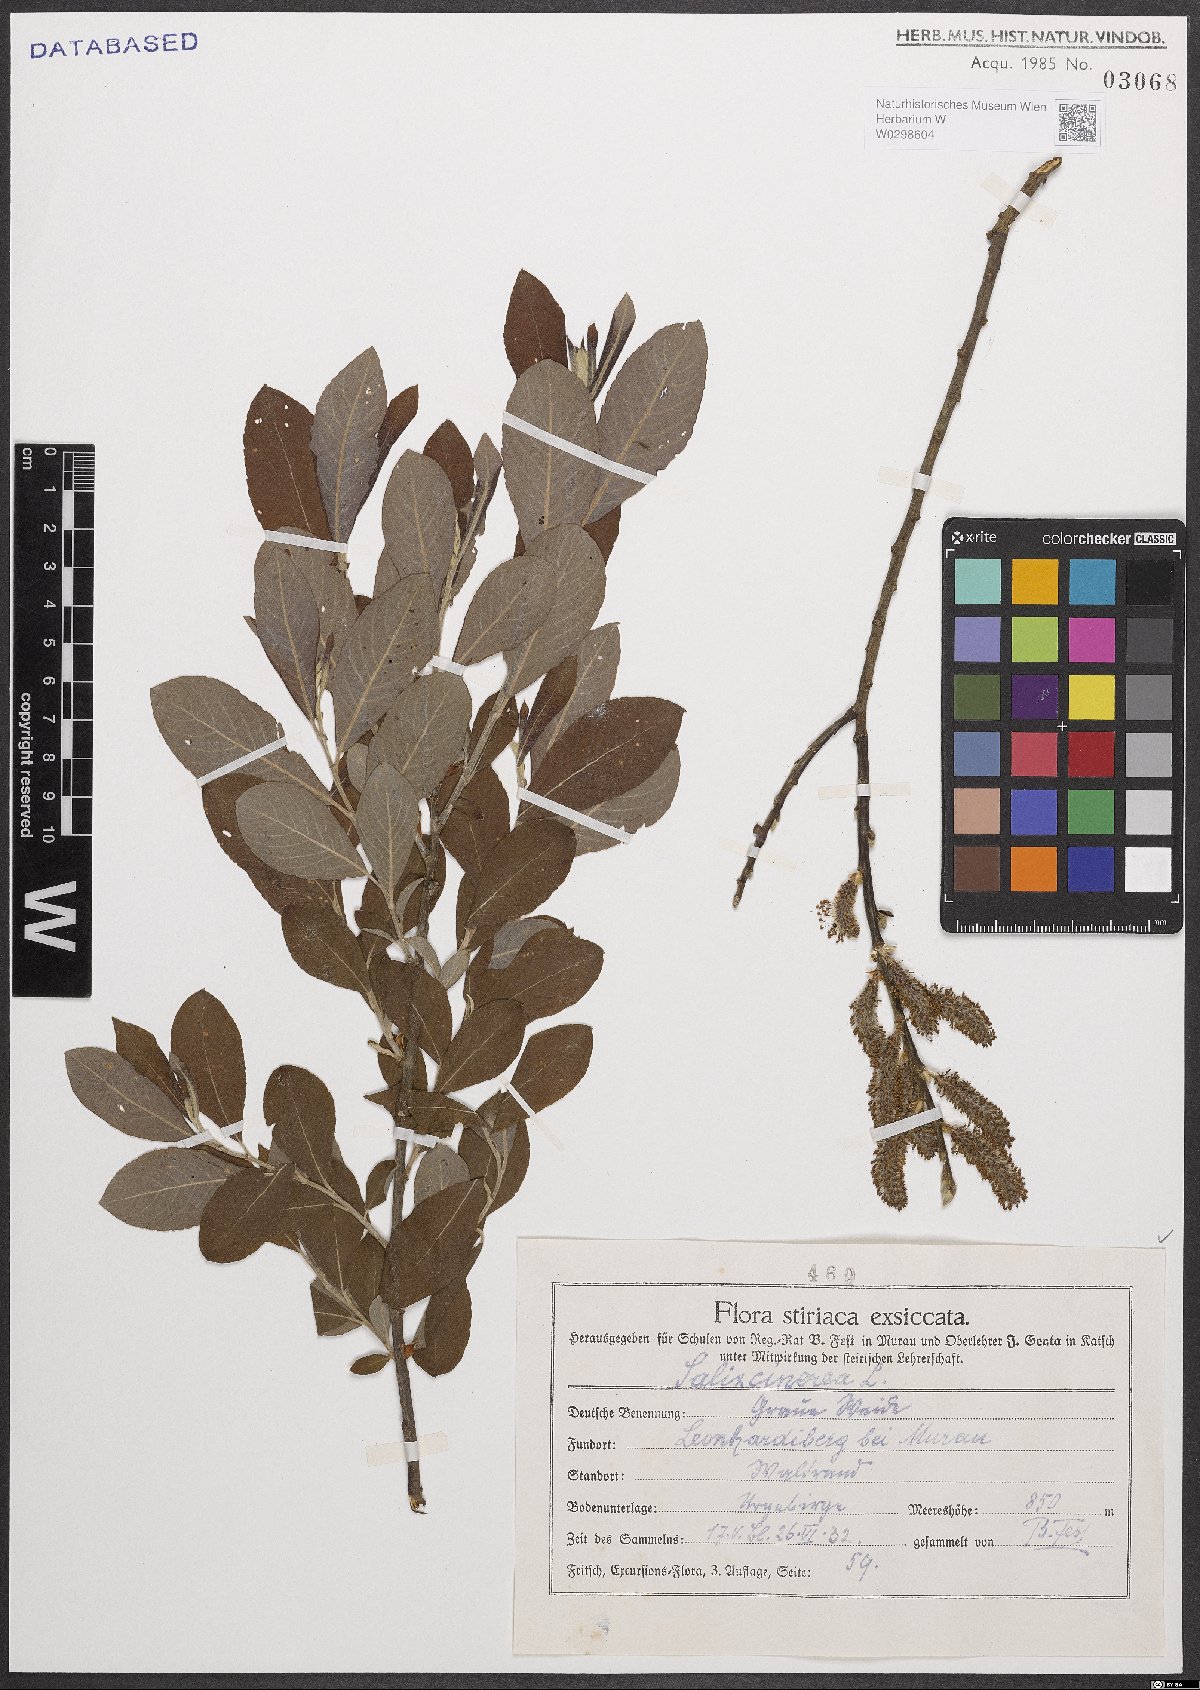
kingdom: Plantae
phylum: Tracheophyta
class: Magnoliopsida
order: Malpighiales
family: Salicaceae
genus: Salix
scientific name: Salix cinerea
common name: Common sallow
